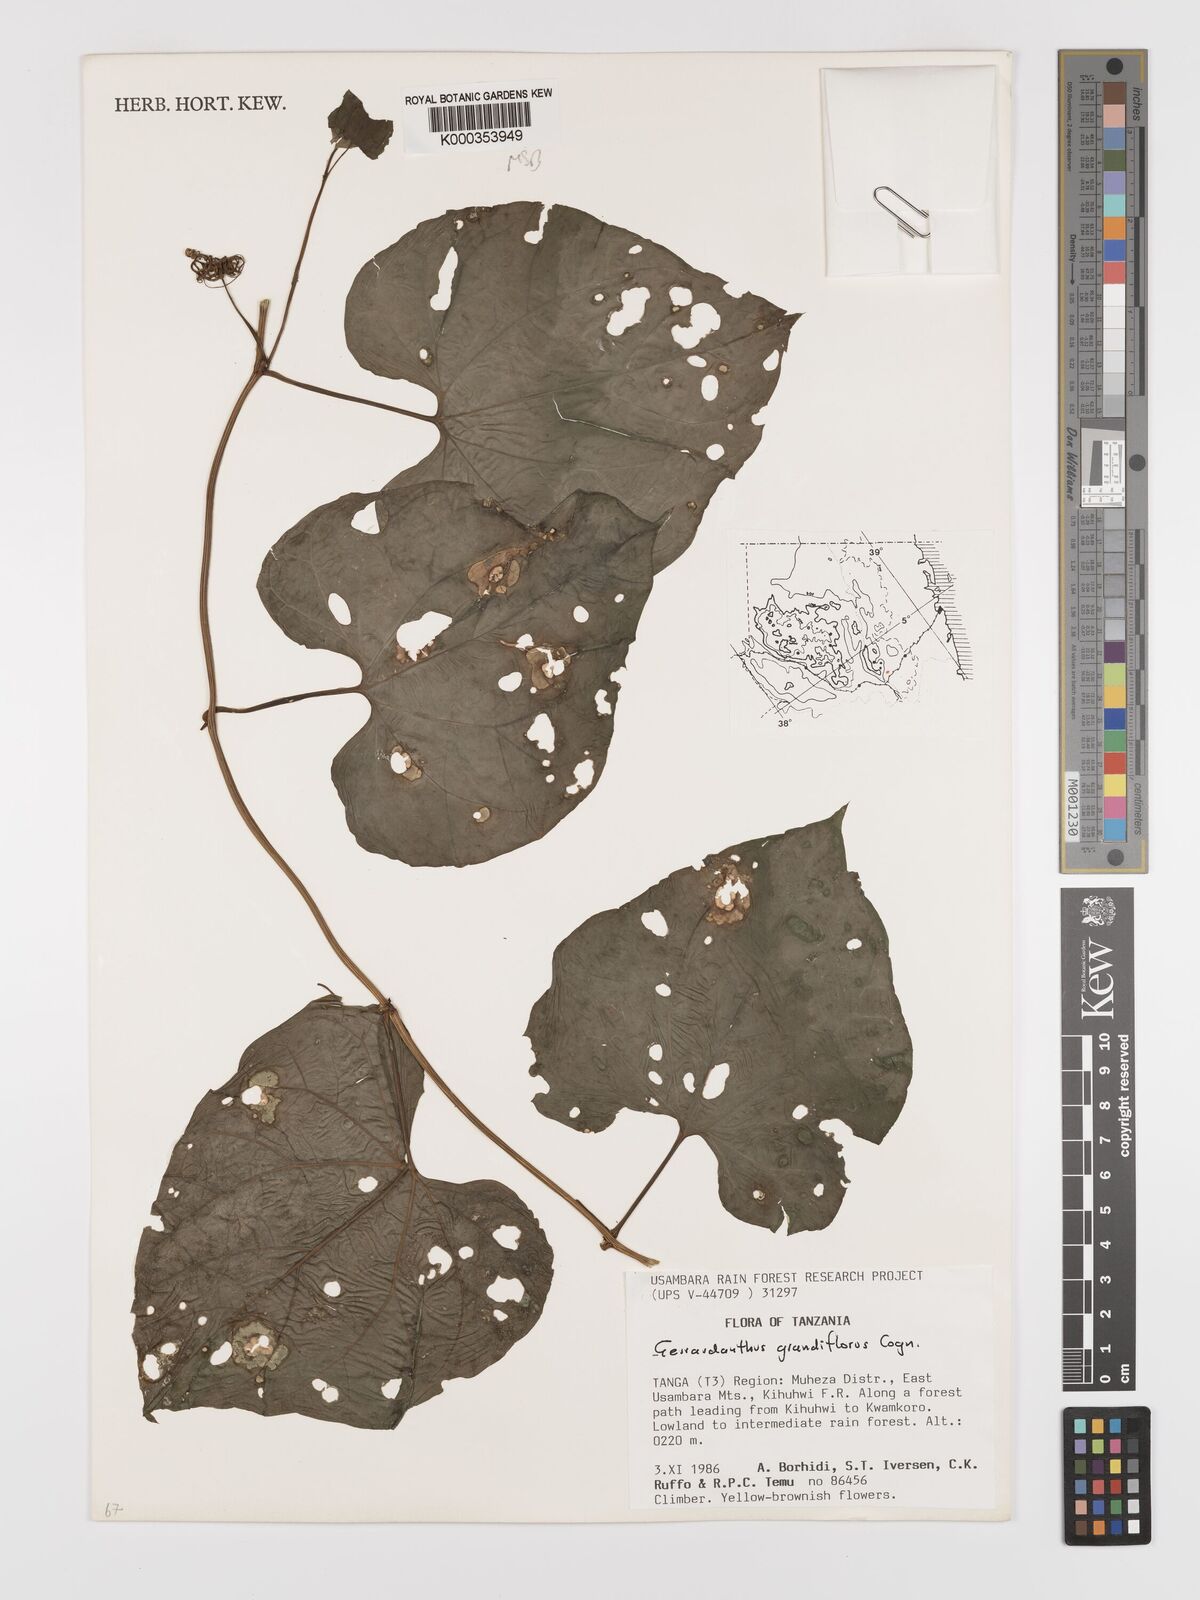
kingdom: Plantae
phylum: Tracheophyta
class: Magnoliopsida
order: Cucurbitales
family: Cucurbitaceae
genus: Gerrardanthus
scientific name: Gerrardanthus
